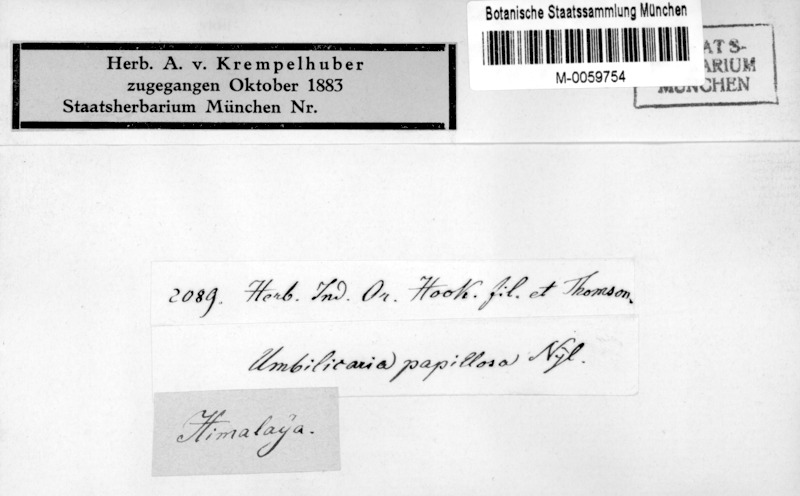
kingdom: Fungi
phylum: Ascomycota
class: Lecanoromycetes
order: Umbilicariales
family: Umbilicariaceae
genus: Umbilicaria
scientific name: Umbilicaria
